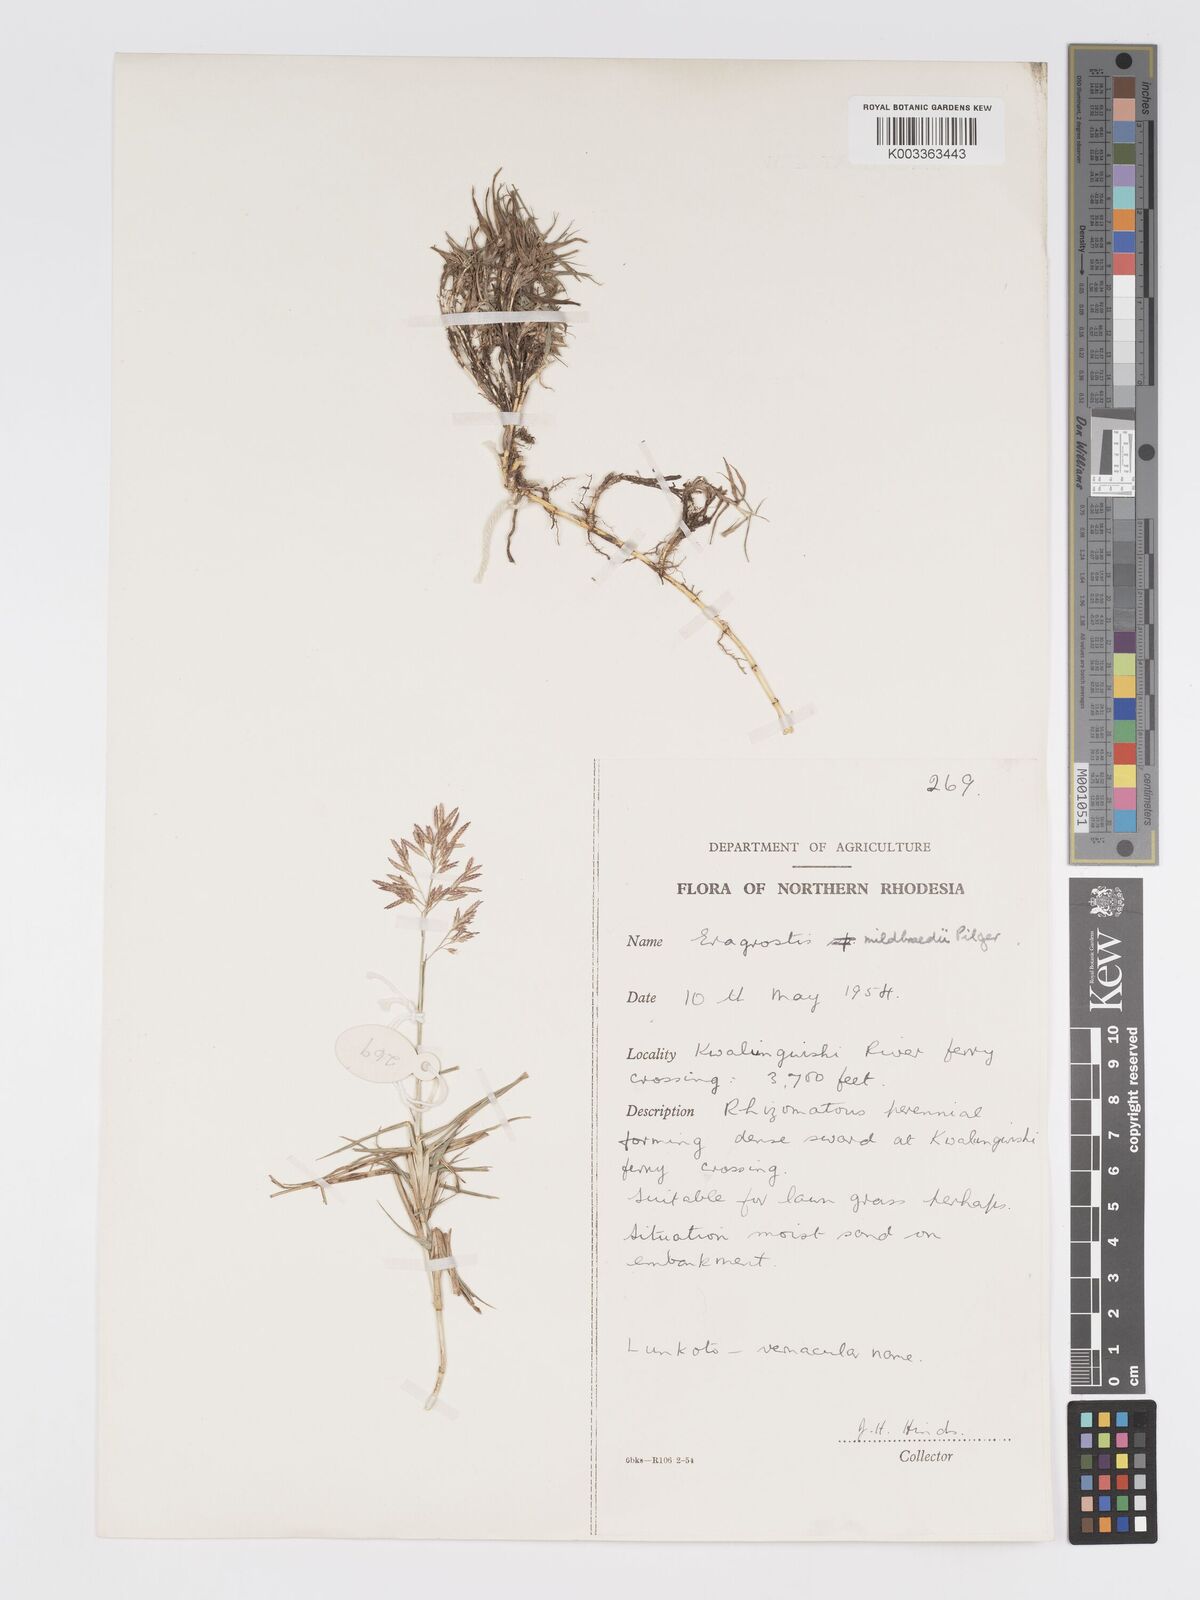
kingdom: Plantae
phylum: Tracheophyta
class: Liliopsida
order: Poales
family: Poaceae
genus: Eragrostis
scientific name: Eragrostis mildbraedii
